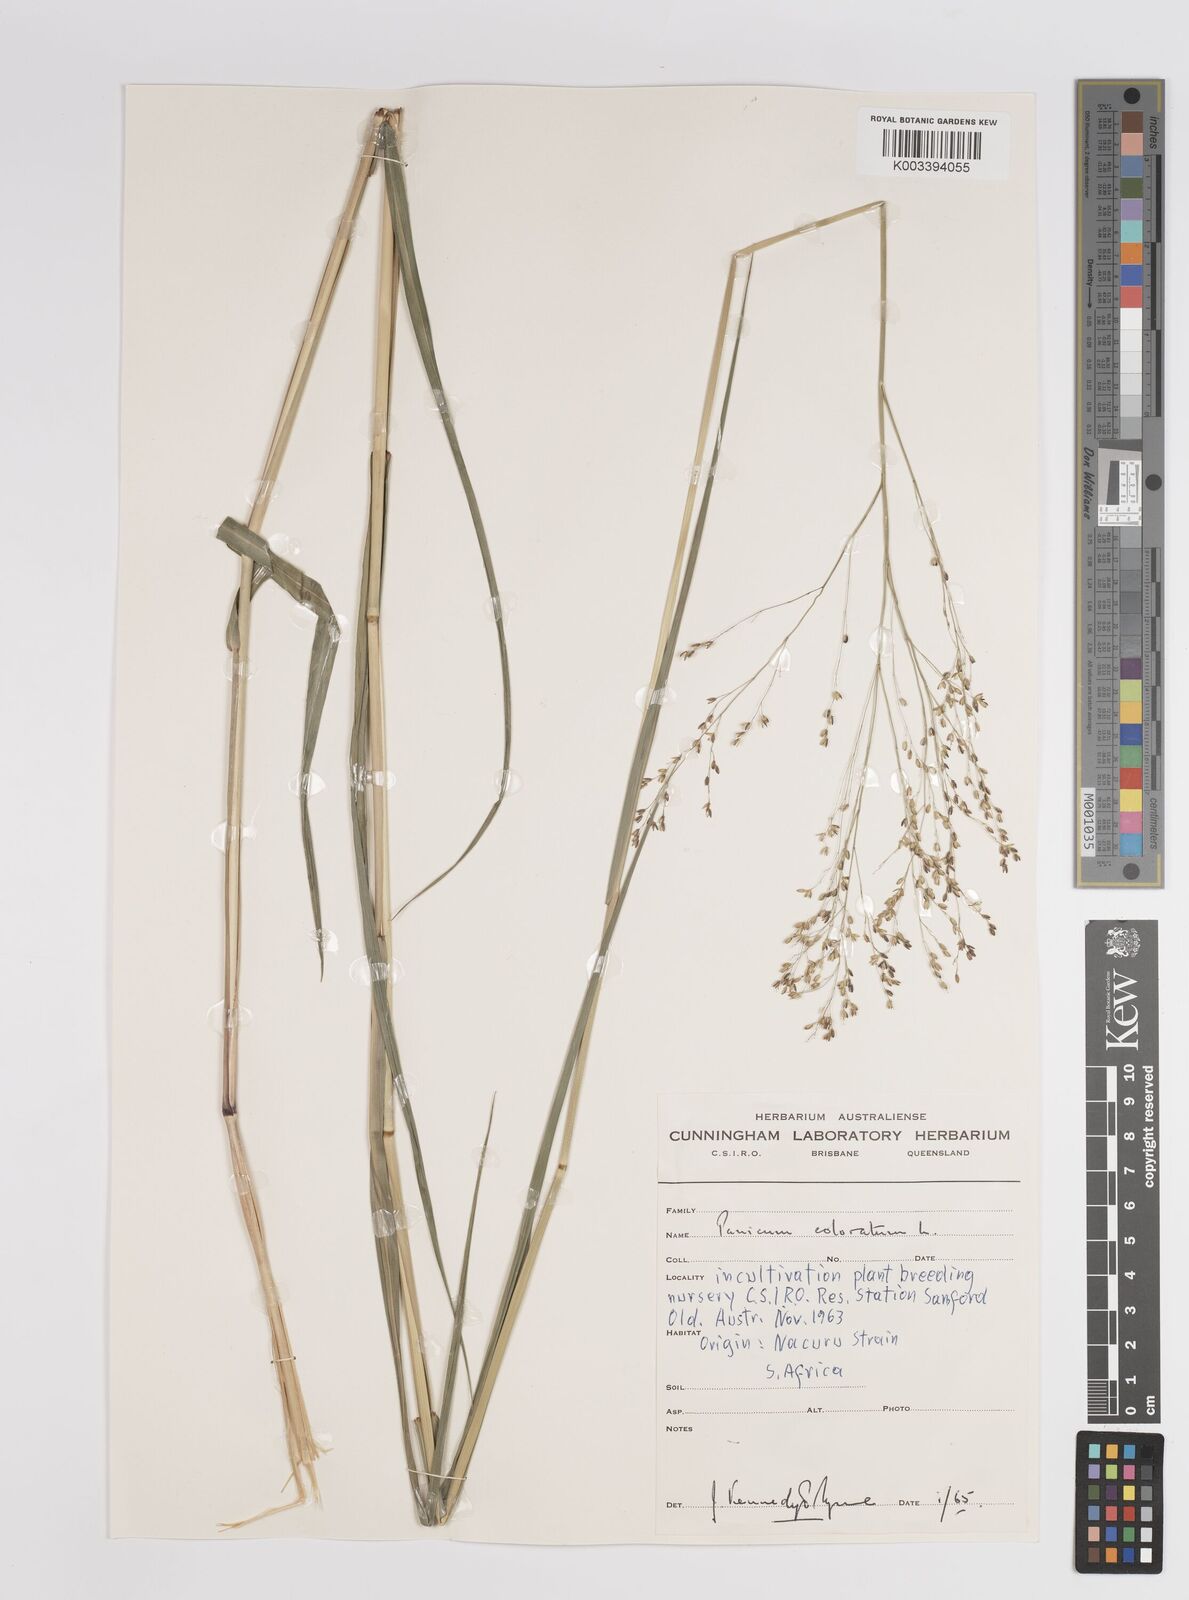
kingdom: Plantae
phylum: Tracheophyta
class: Liliopsida
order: Poales
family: Poaceae
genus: Panicum
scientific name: Panicum coloratum
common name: Kleingrass
